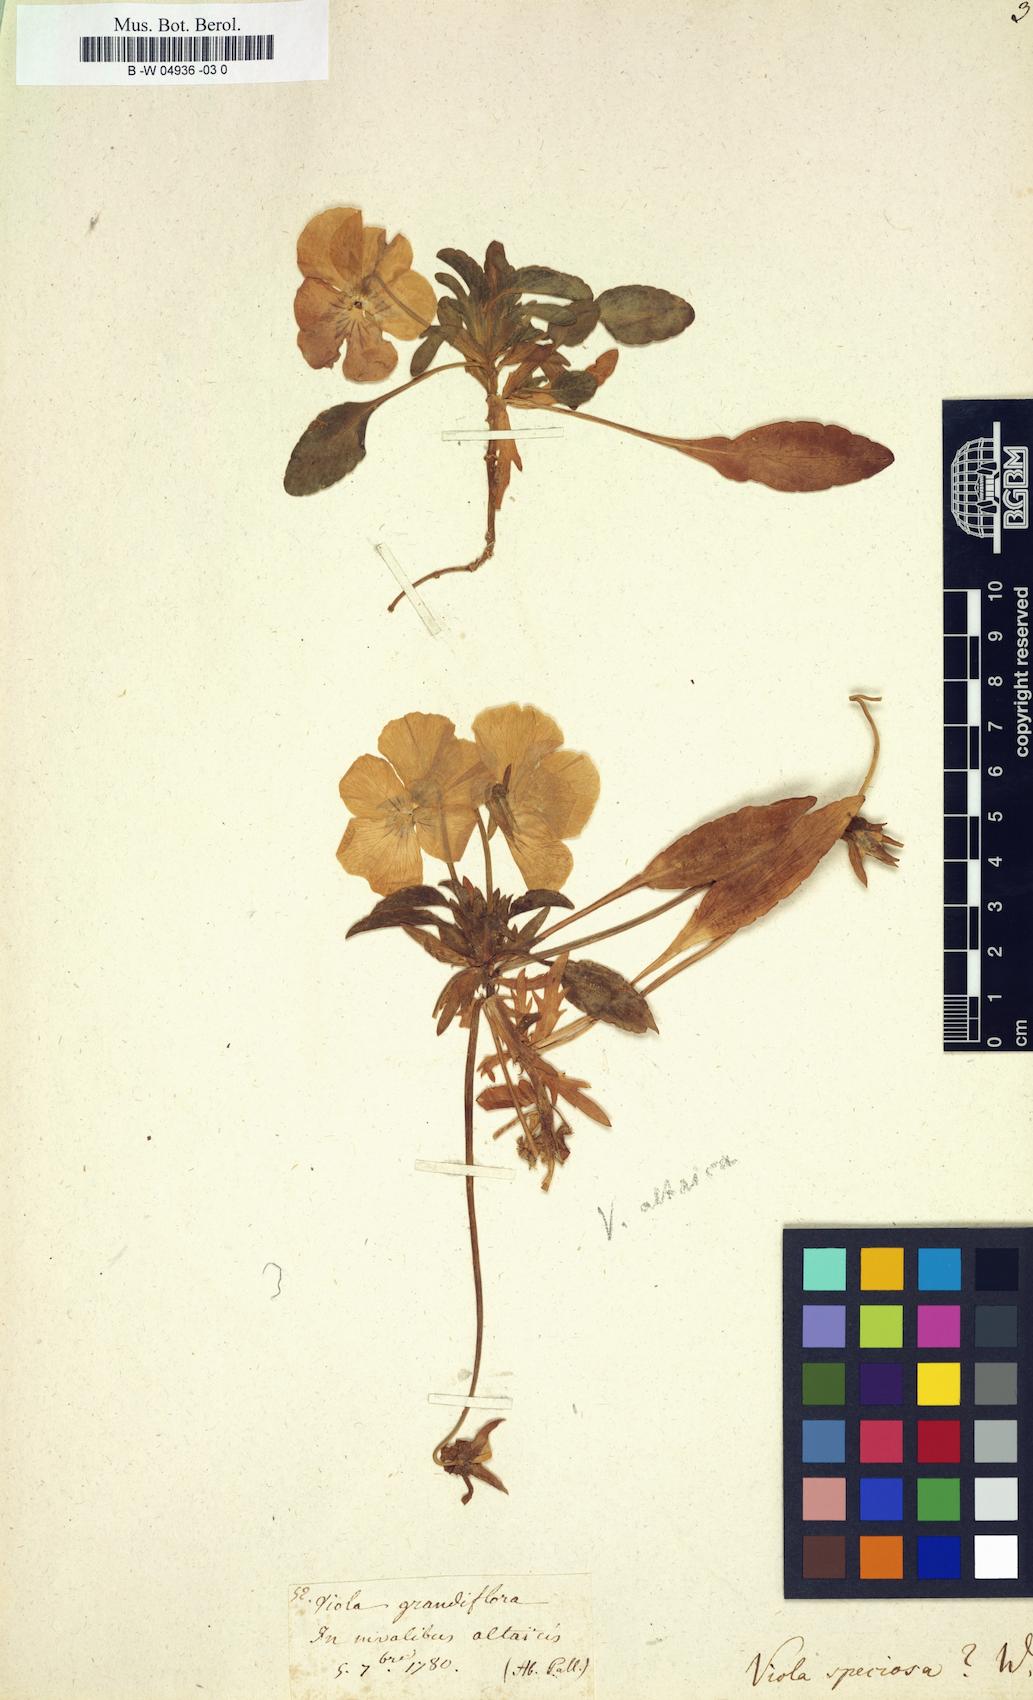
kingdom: Plantae
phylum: Tracheophyta
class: Magnoliopsida
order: Malpighiales
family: Violaceae
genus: Viola
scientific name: Viola
